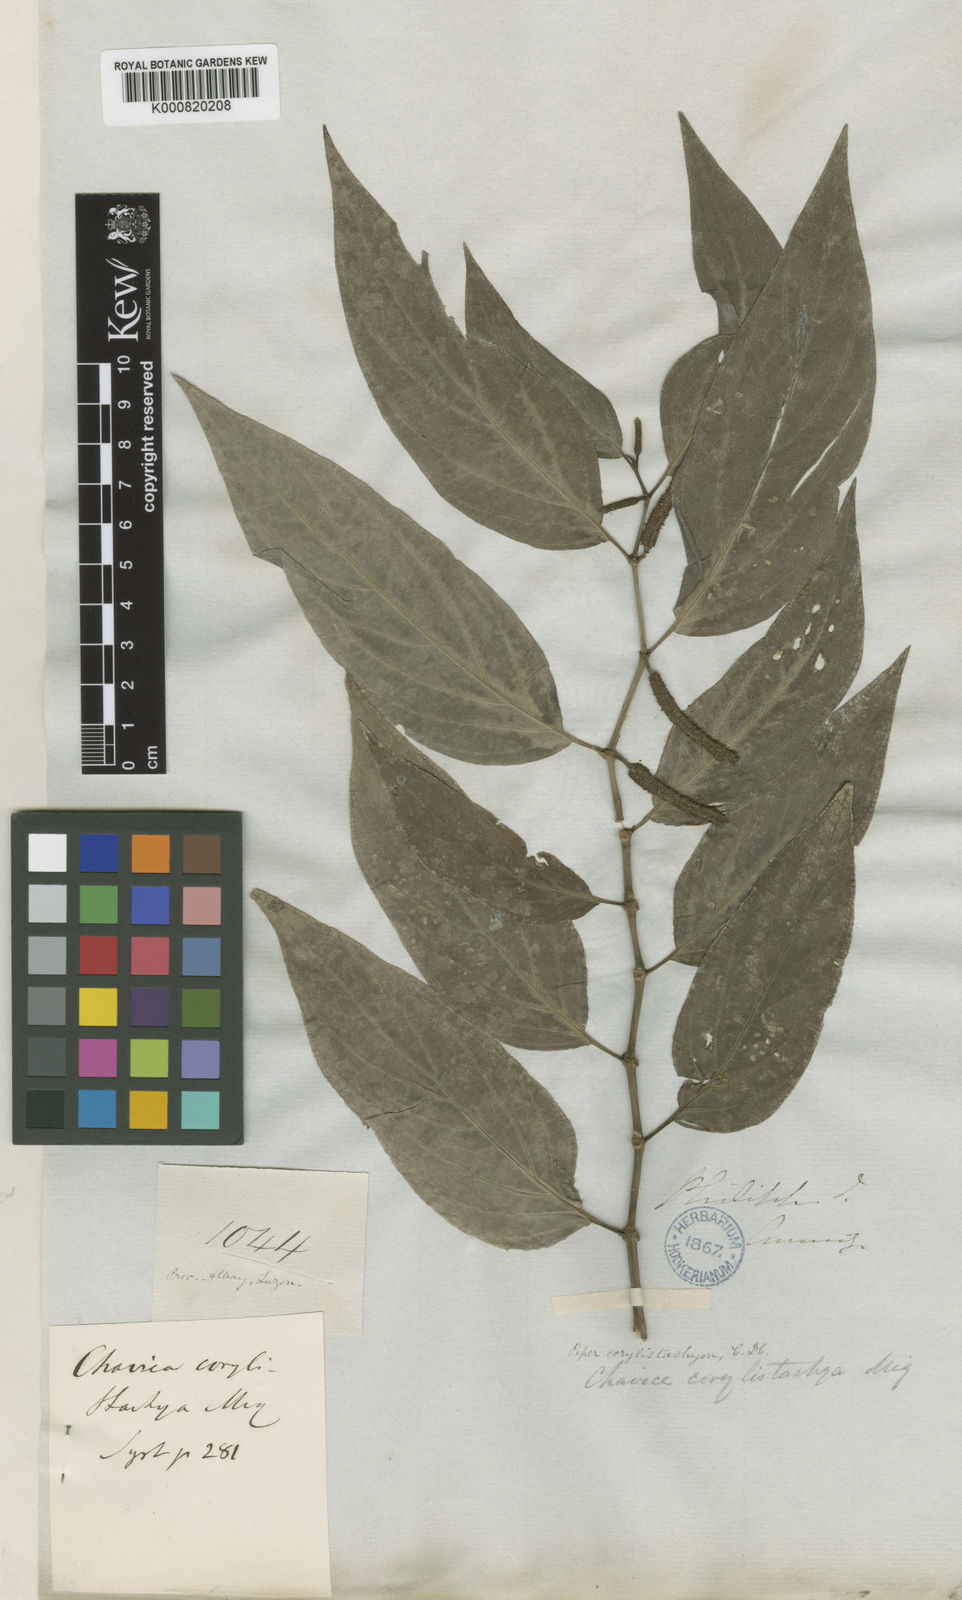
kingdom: Plantae
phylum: Tracheophyta
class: Magnoliopsida
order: Piperales
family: Piperaceae
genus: Piper
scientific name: Piper celtidiforme
